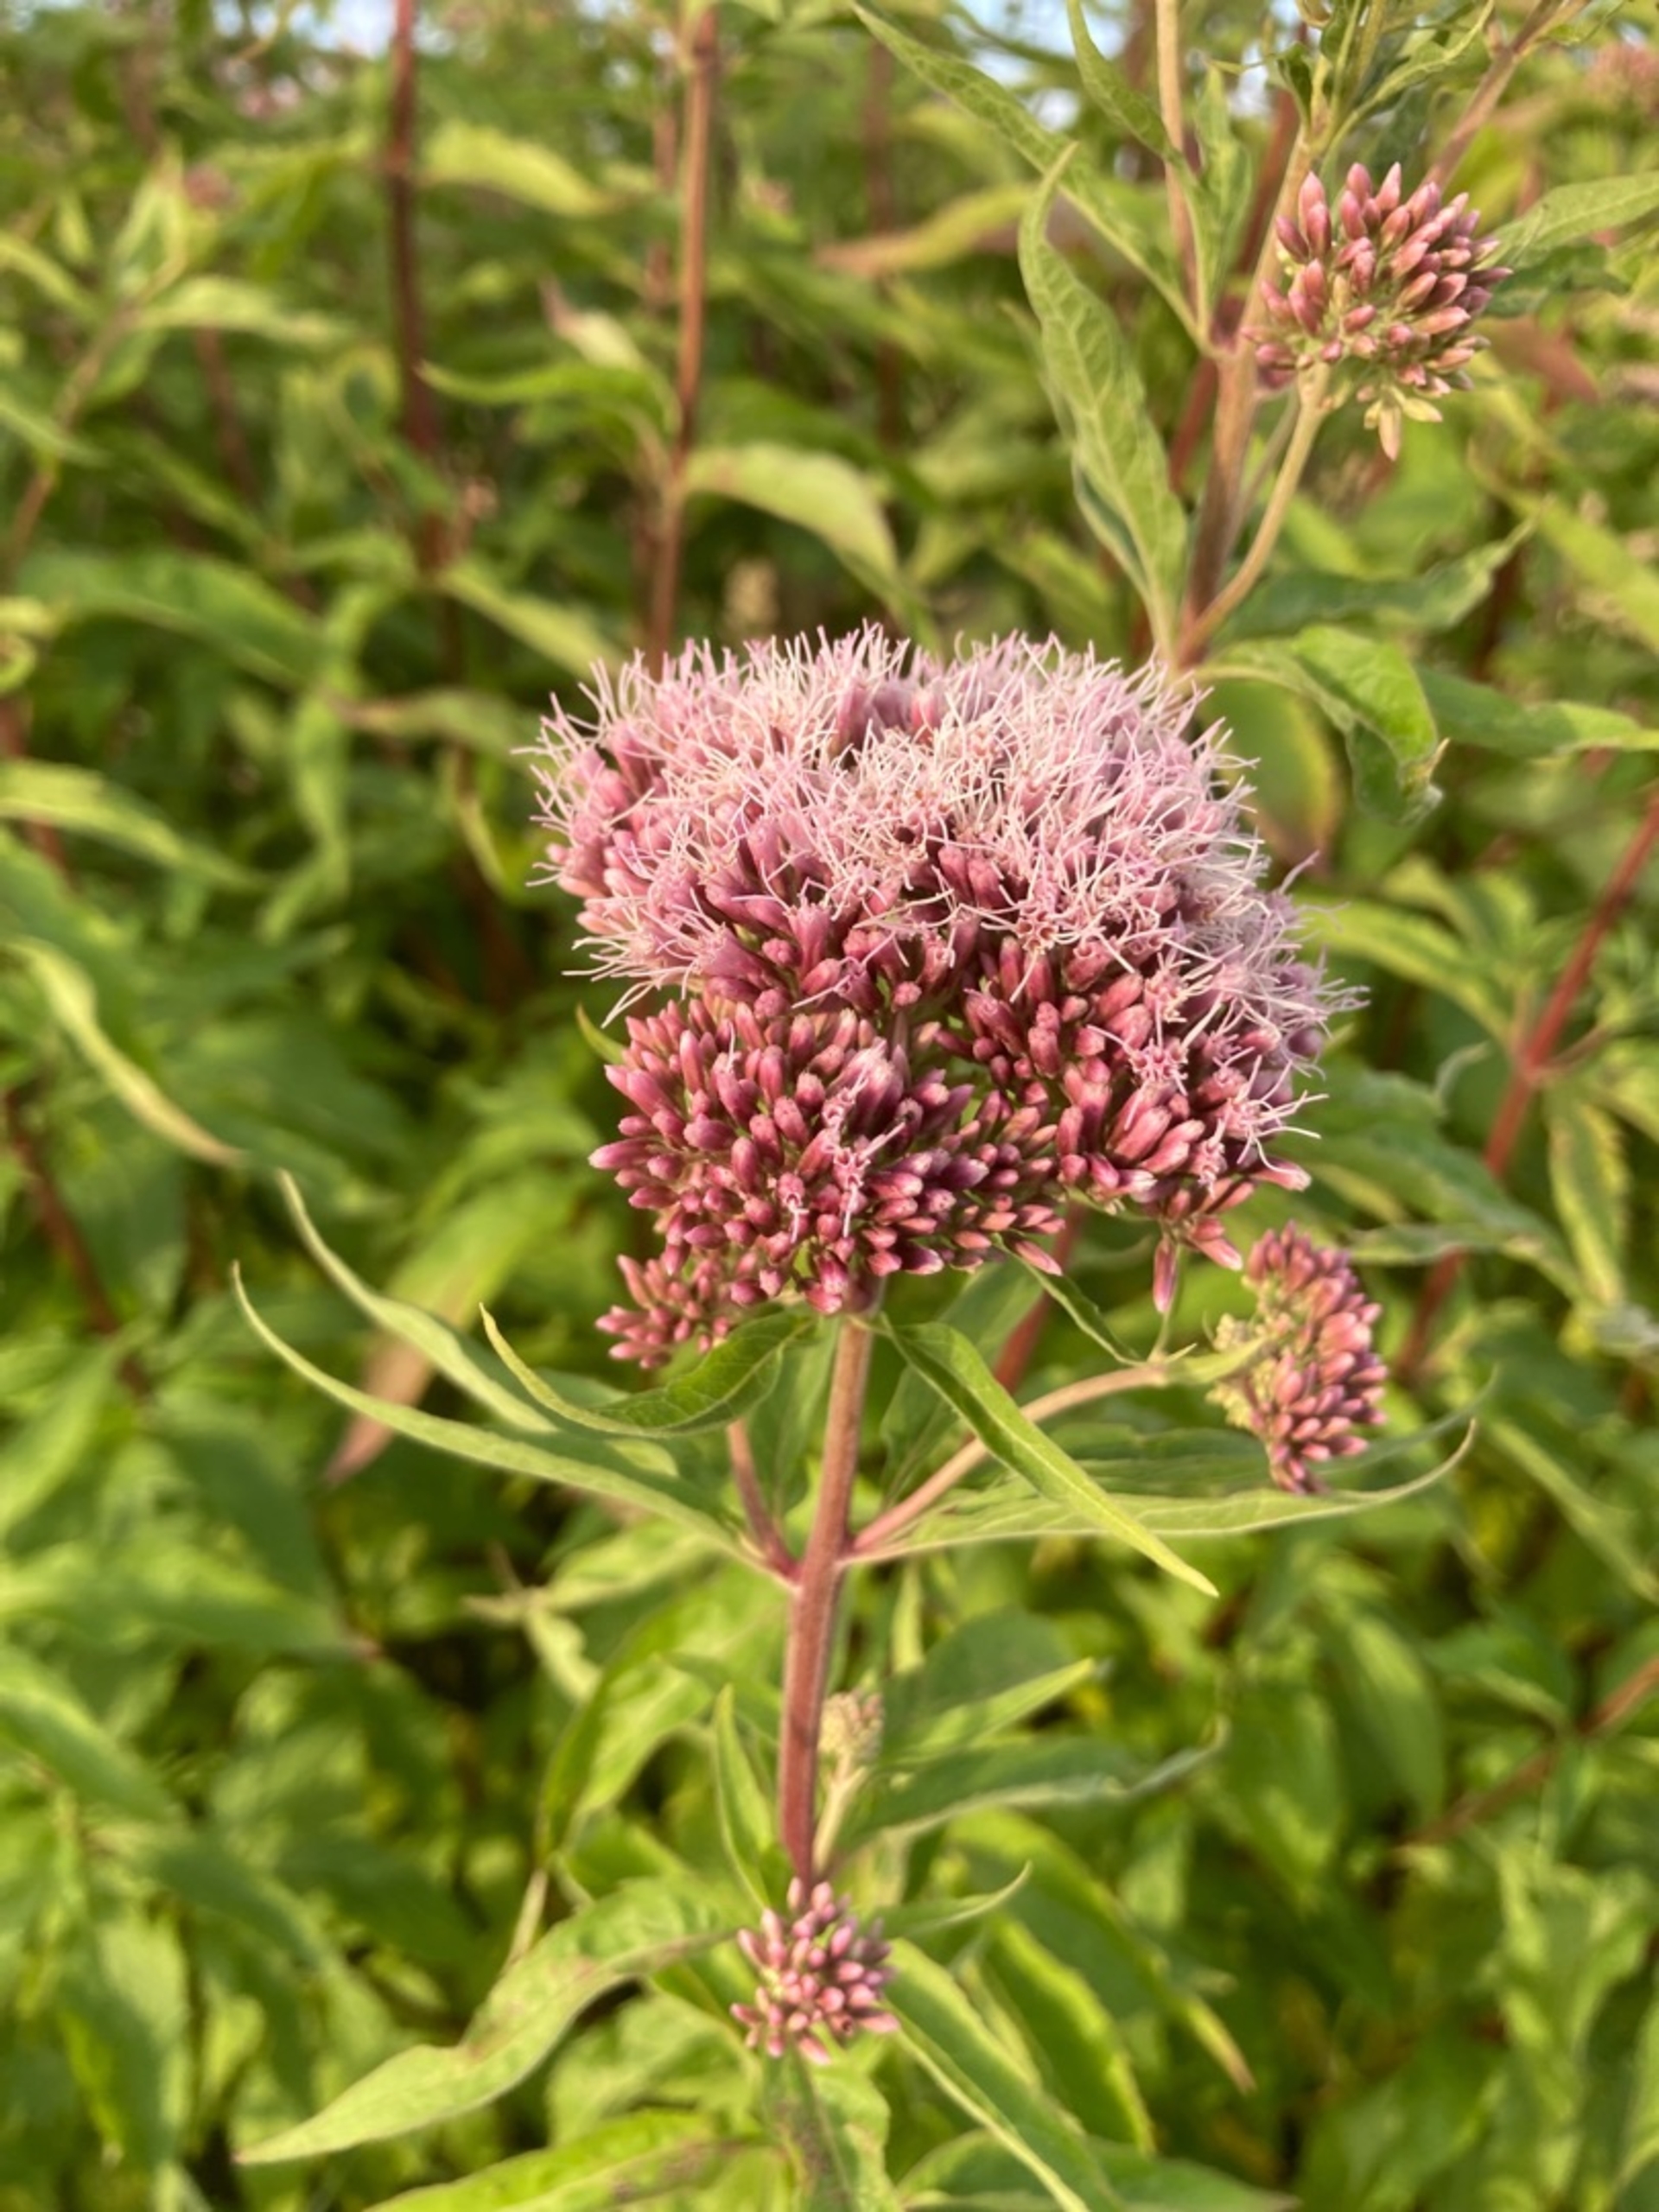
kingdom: Plantae
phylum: Tracheophyta
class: Magnoliopsida
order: Asterales
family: Asteraceae
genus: Eupatorium
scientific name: Eupatorium cannabinum
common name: Hjortetrøst
